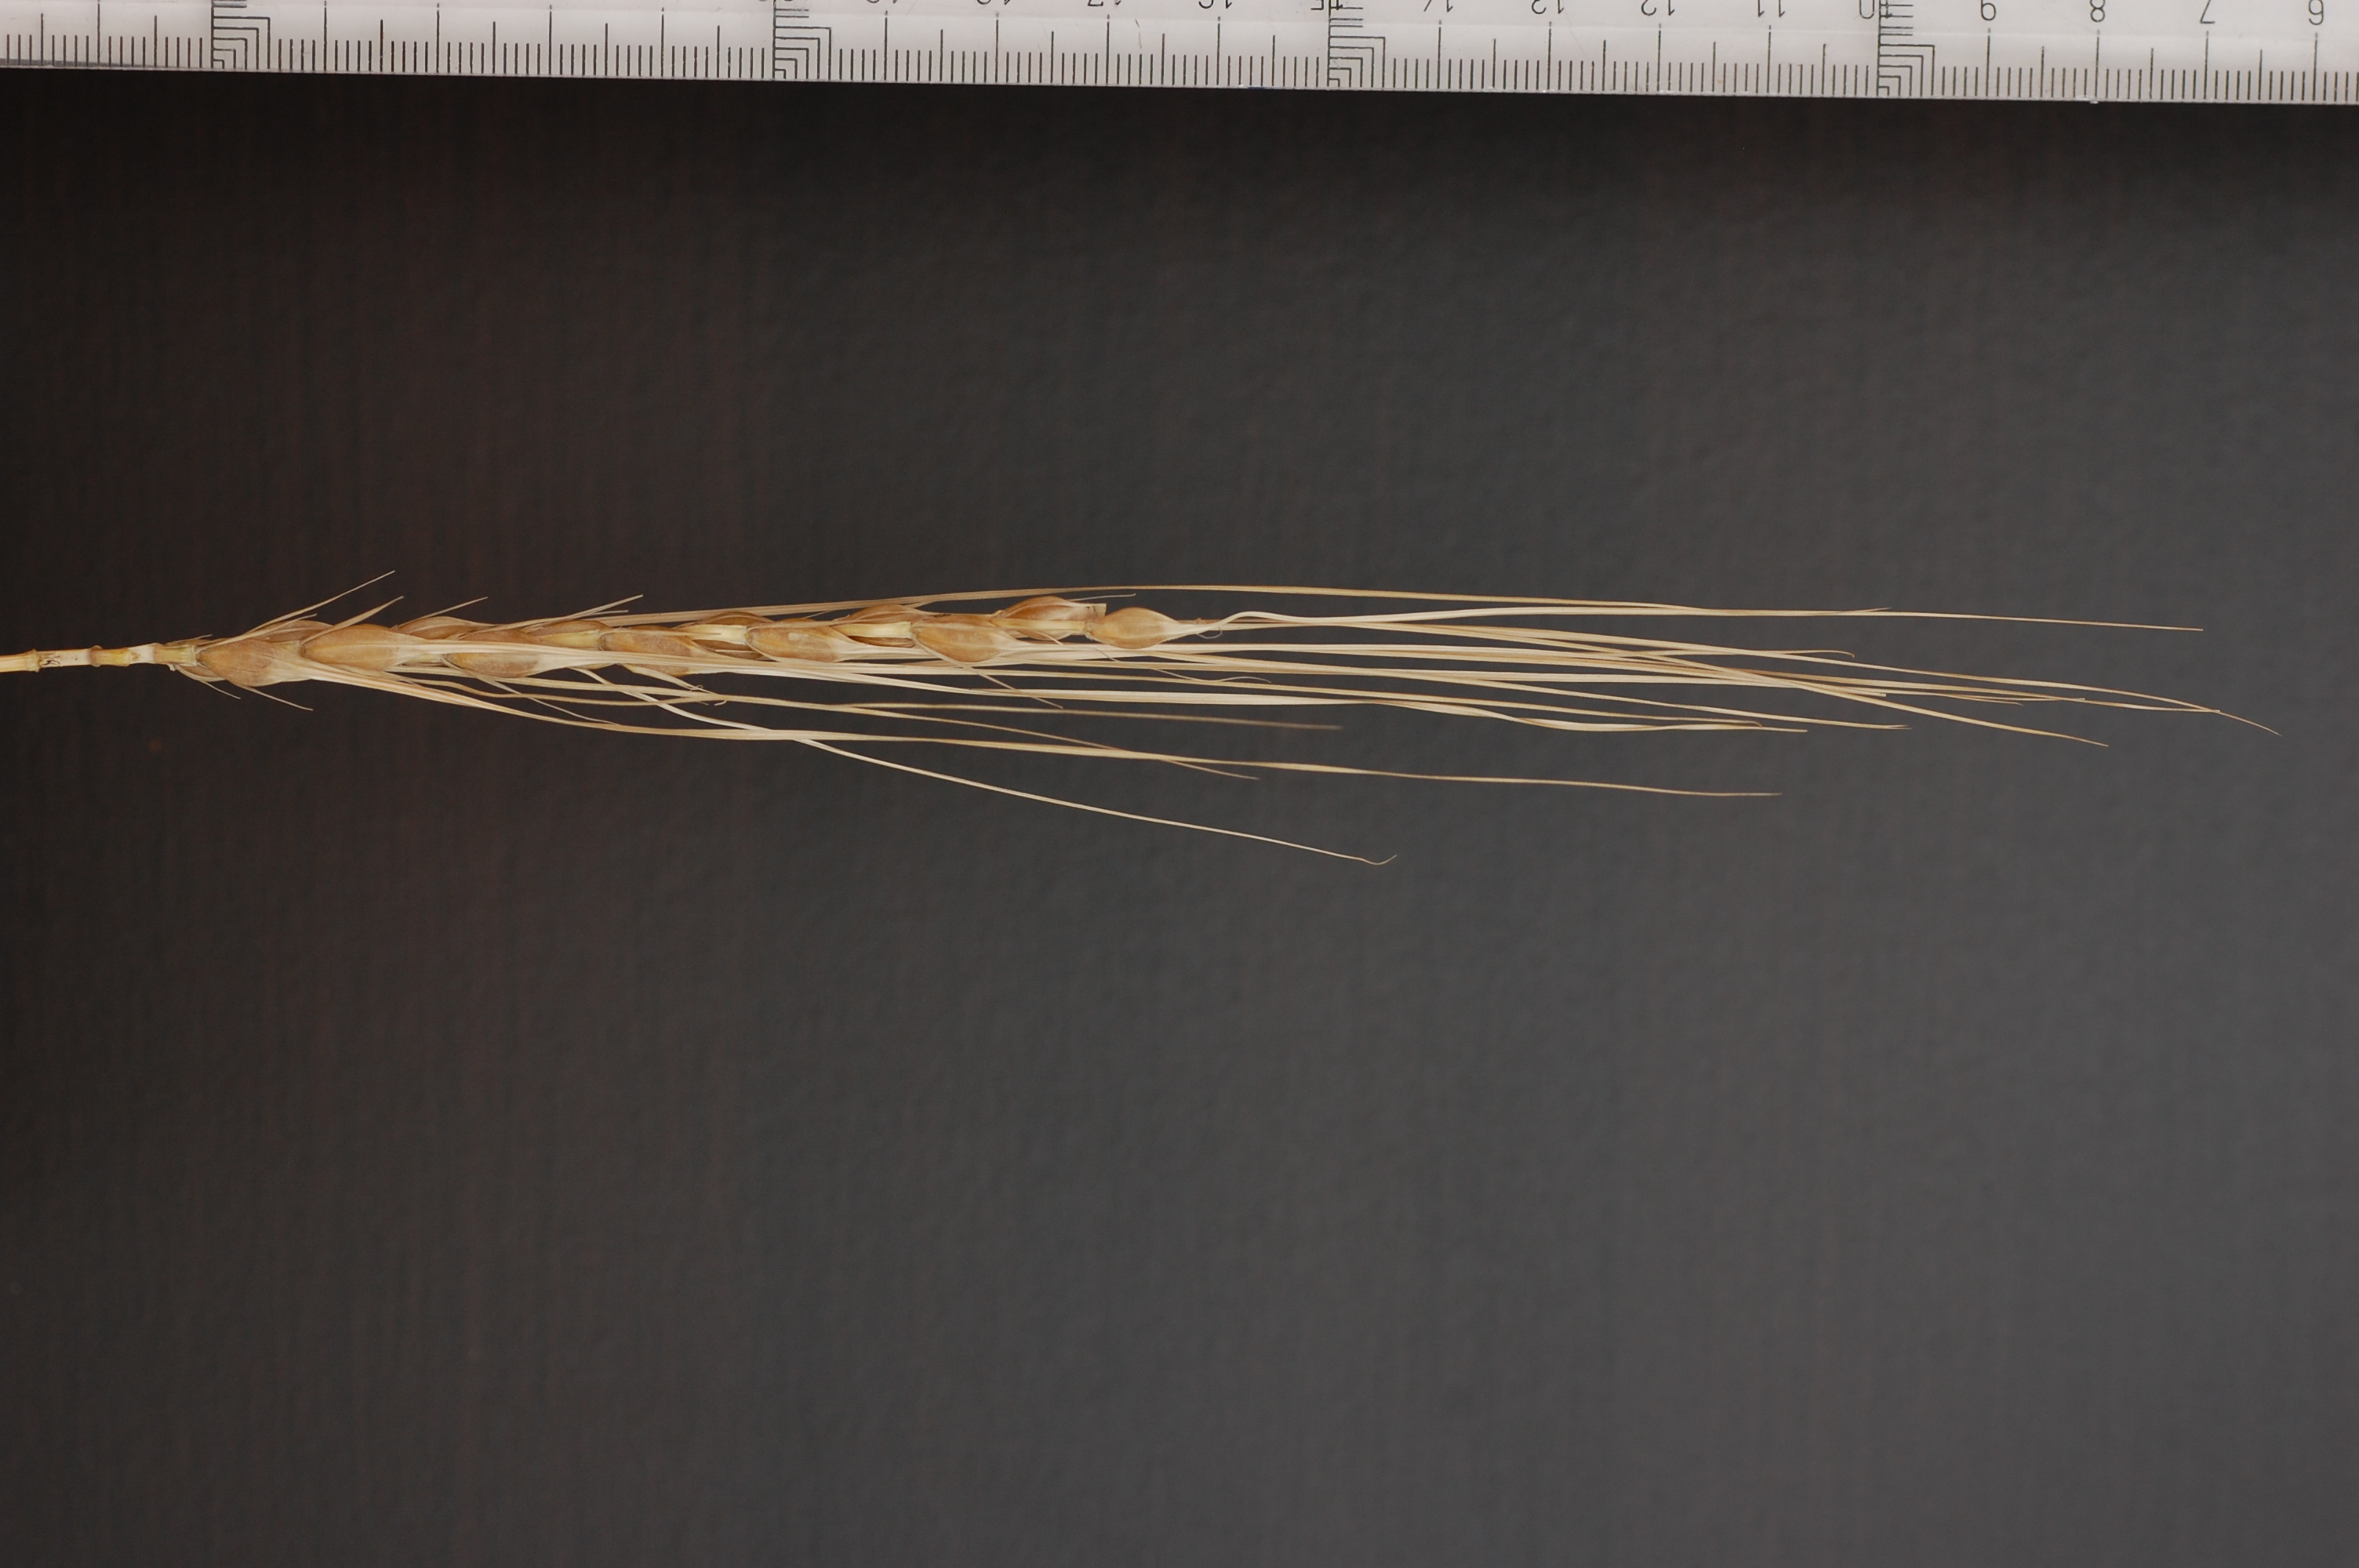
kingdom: Plantae
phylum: Tracheophyta
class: Liliopsida
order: Poales
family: Poaceae
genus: Hordeum
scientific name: Hordeum vulgare
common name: Common barley
